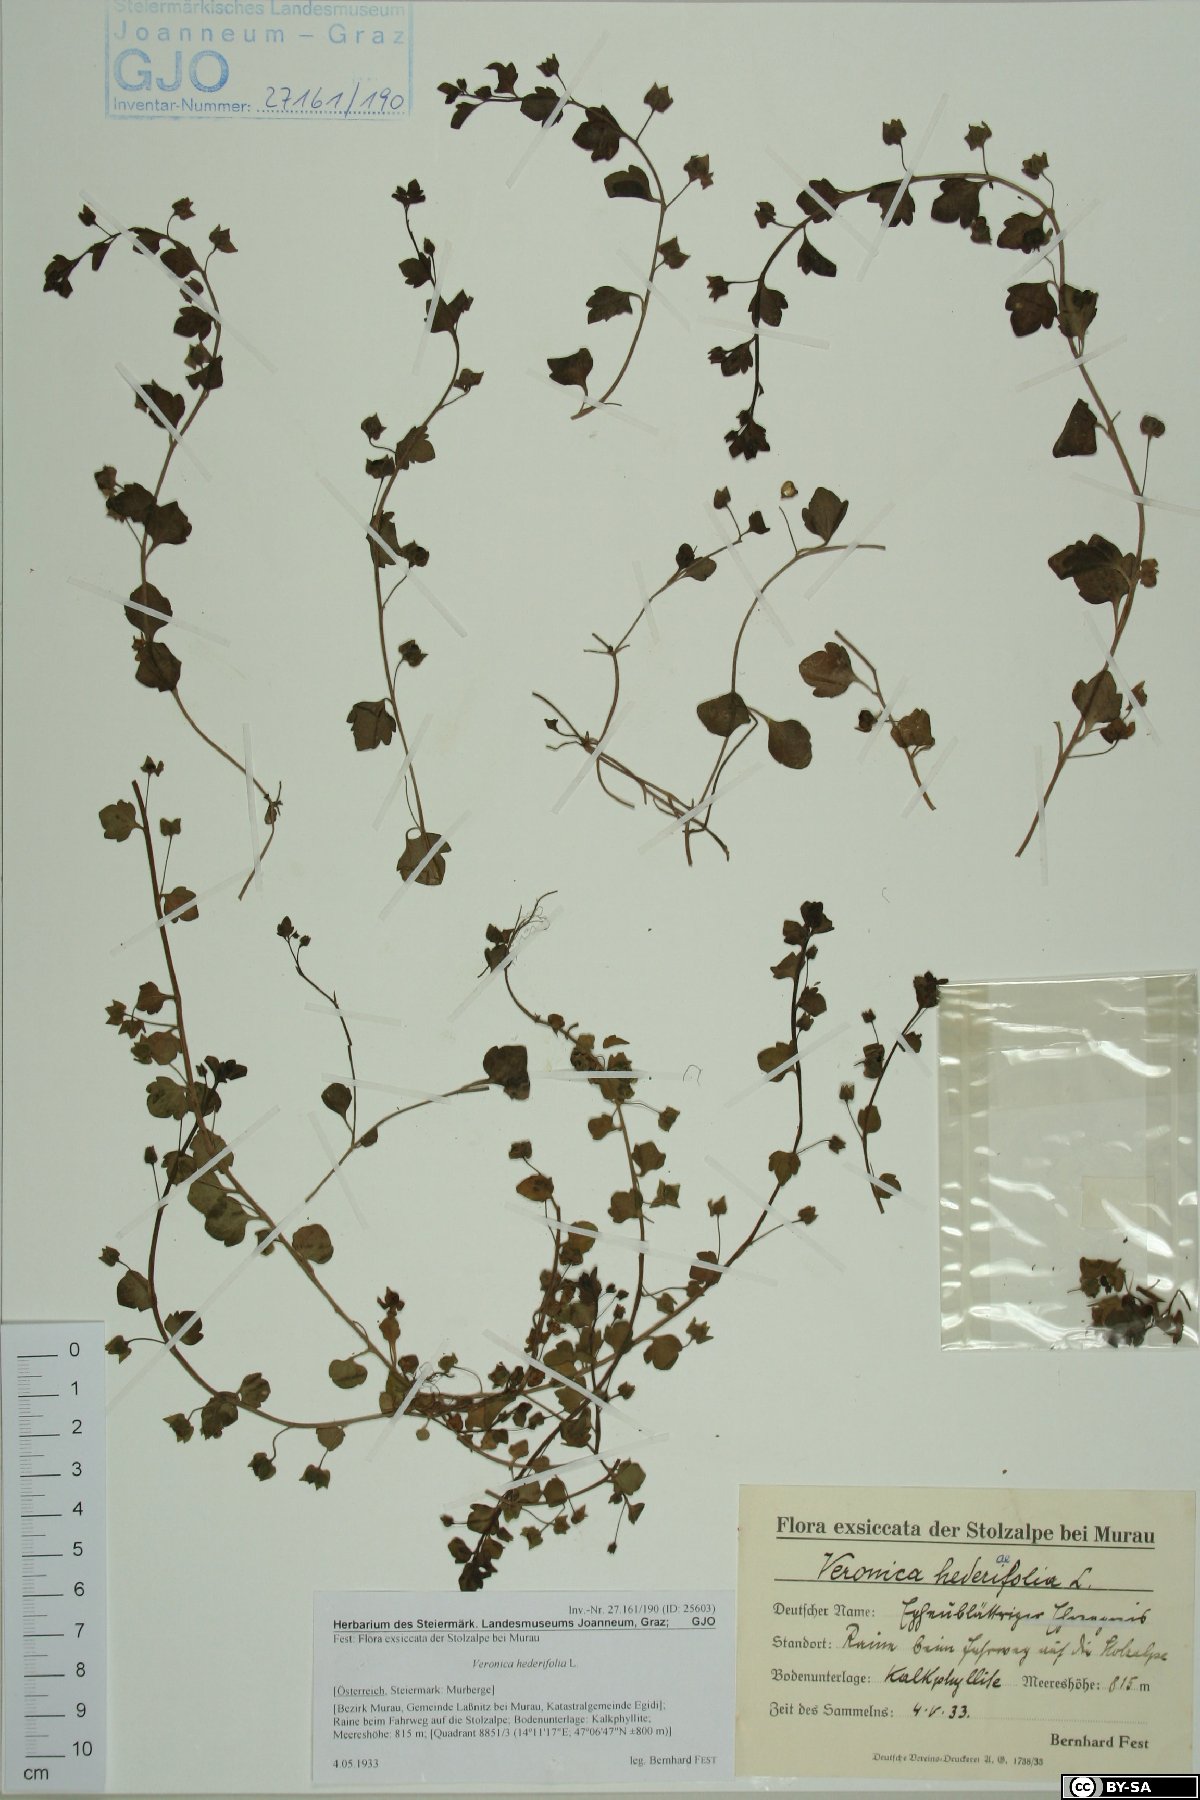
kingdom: Plantae
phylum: Tracheophyta
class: Magnoliopsida
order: Lamiales
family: Plantaginaceae
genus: Veronica
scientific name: Veronica hederifolia
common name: Ivy-leaved speedwell
